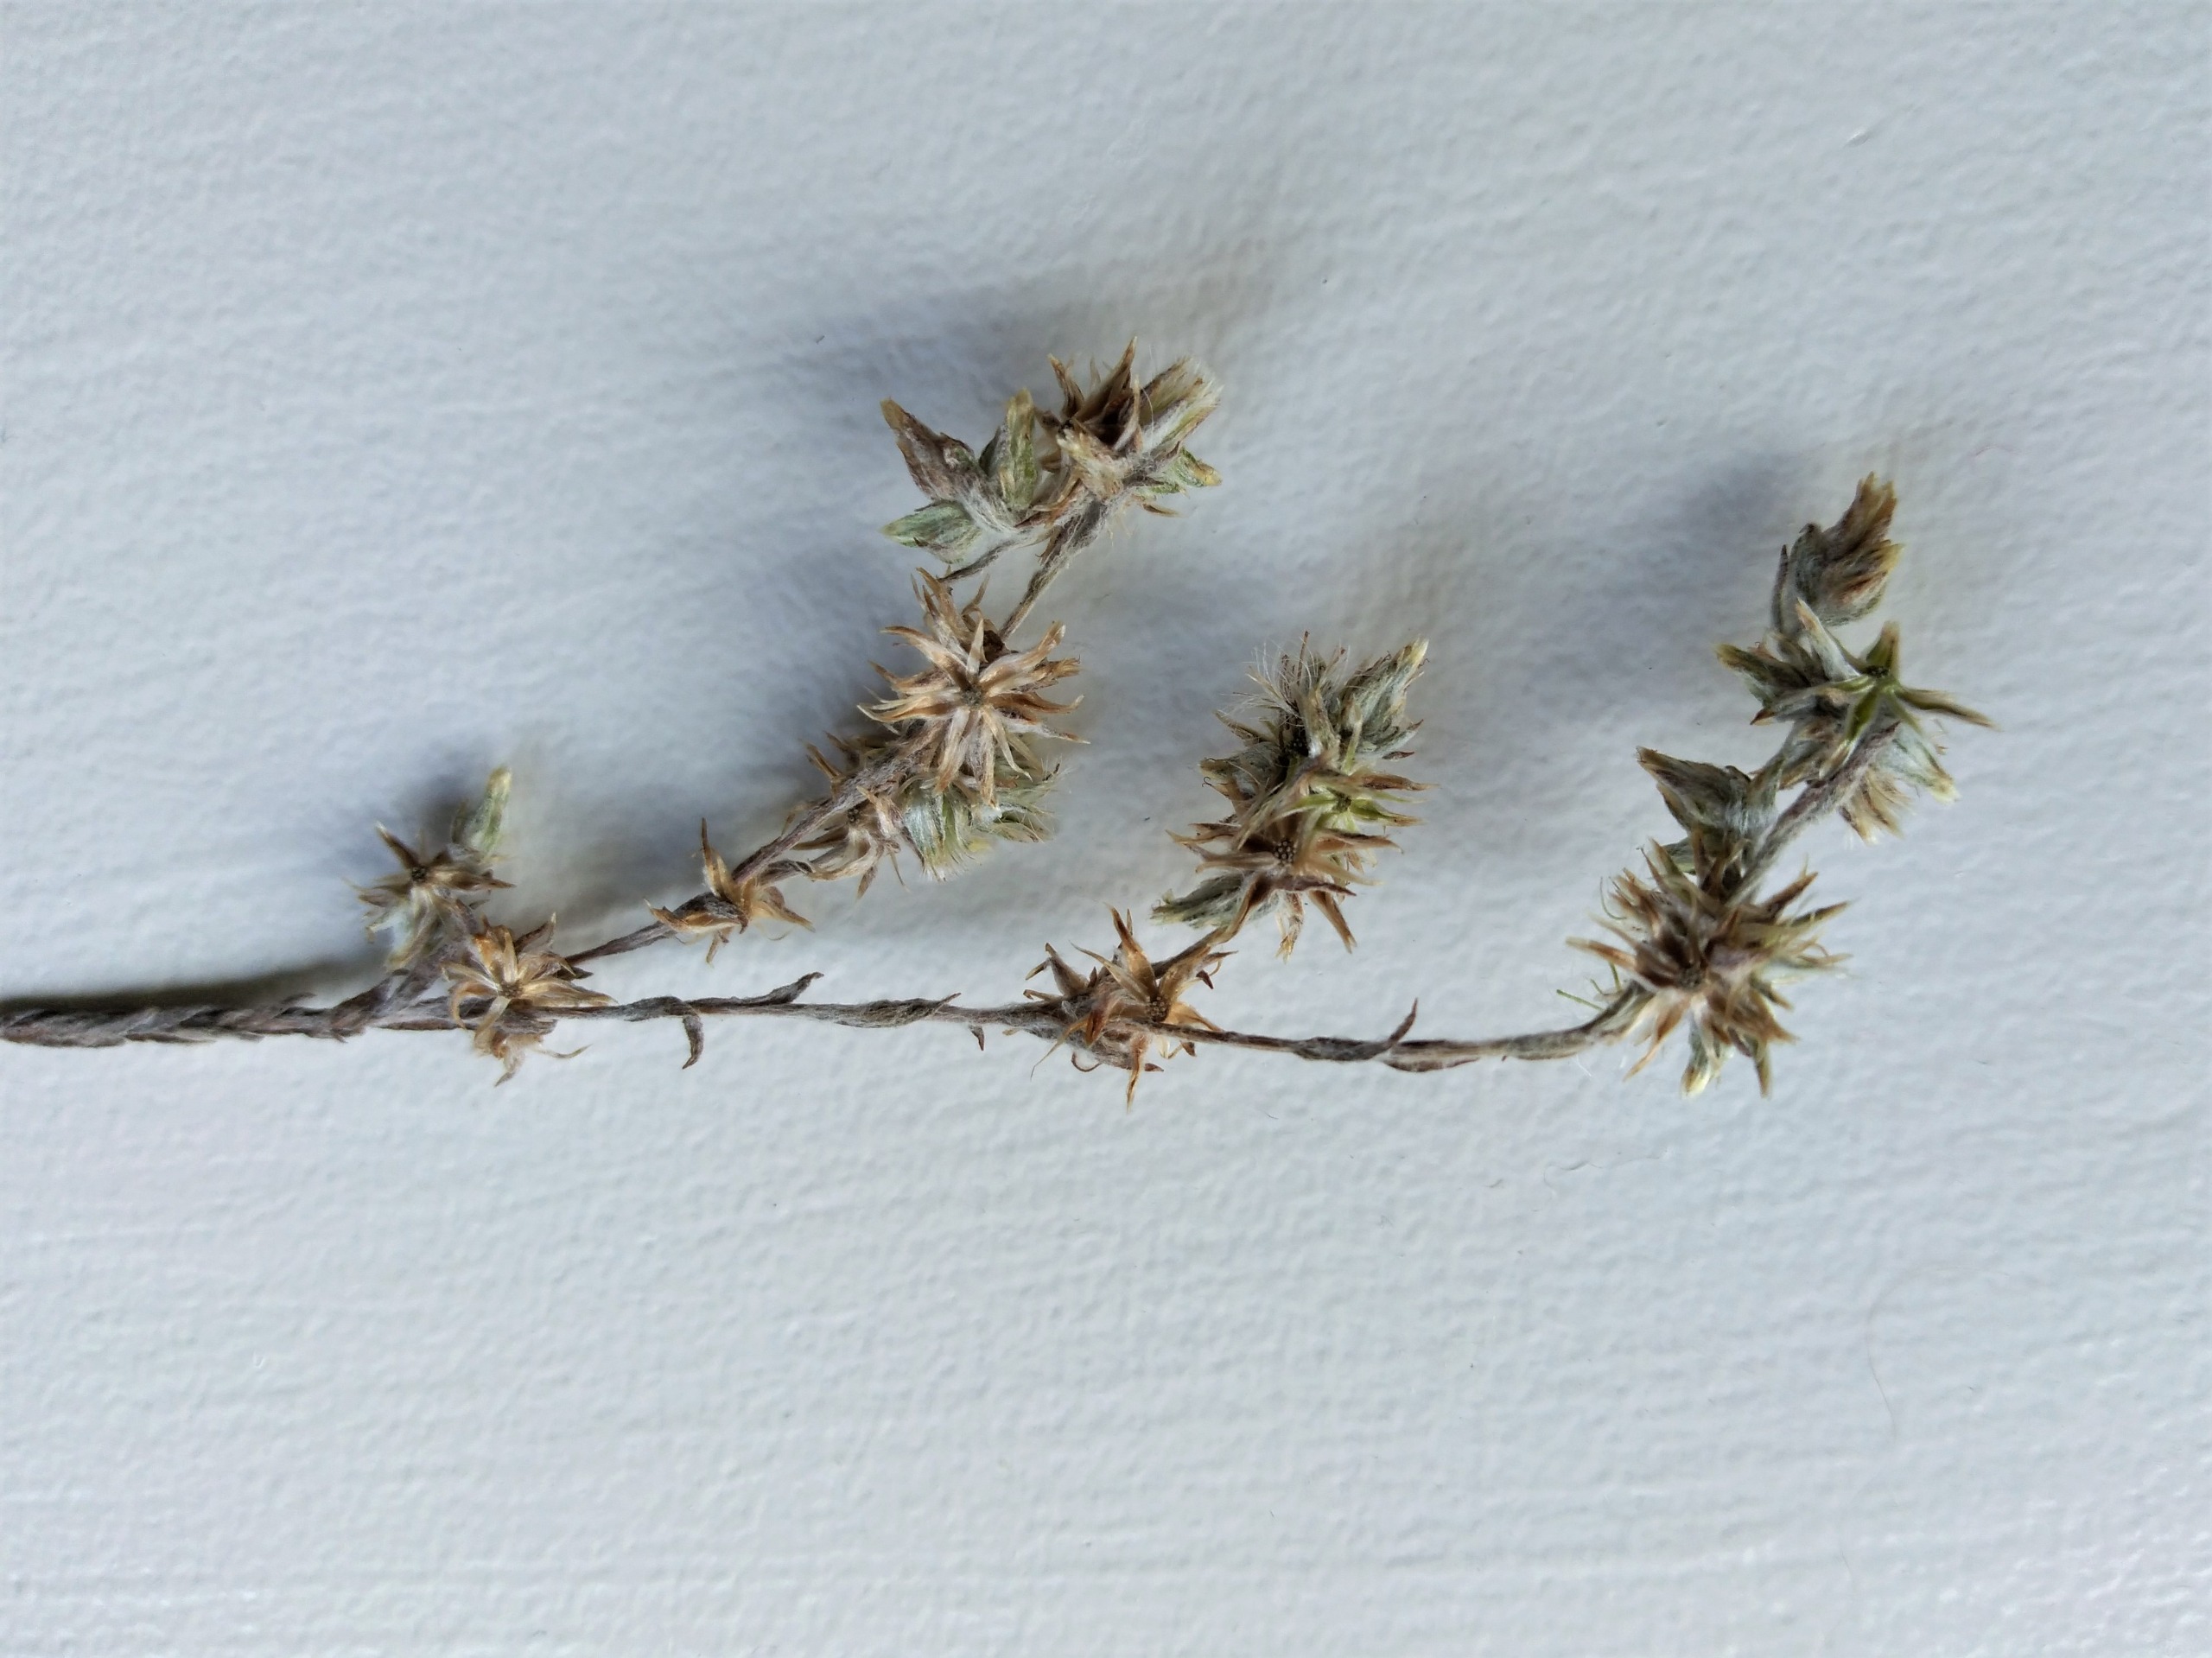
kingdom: Plantae
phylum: Tracheophyta
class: Magnoliopsida
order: Asterales
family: Asteraceae
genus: Logfia
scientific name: Logfia minima
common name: Liden museurt
